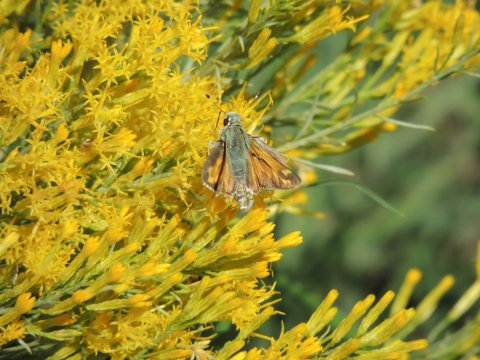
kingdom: Animalia
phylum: Arthropoda
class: Insecta
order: Lepidoptera
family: Hesperiidae
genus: Ochlodes
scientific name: Ochlodes sylvanoides
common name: Woodland Skipper
